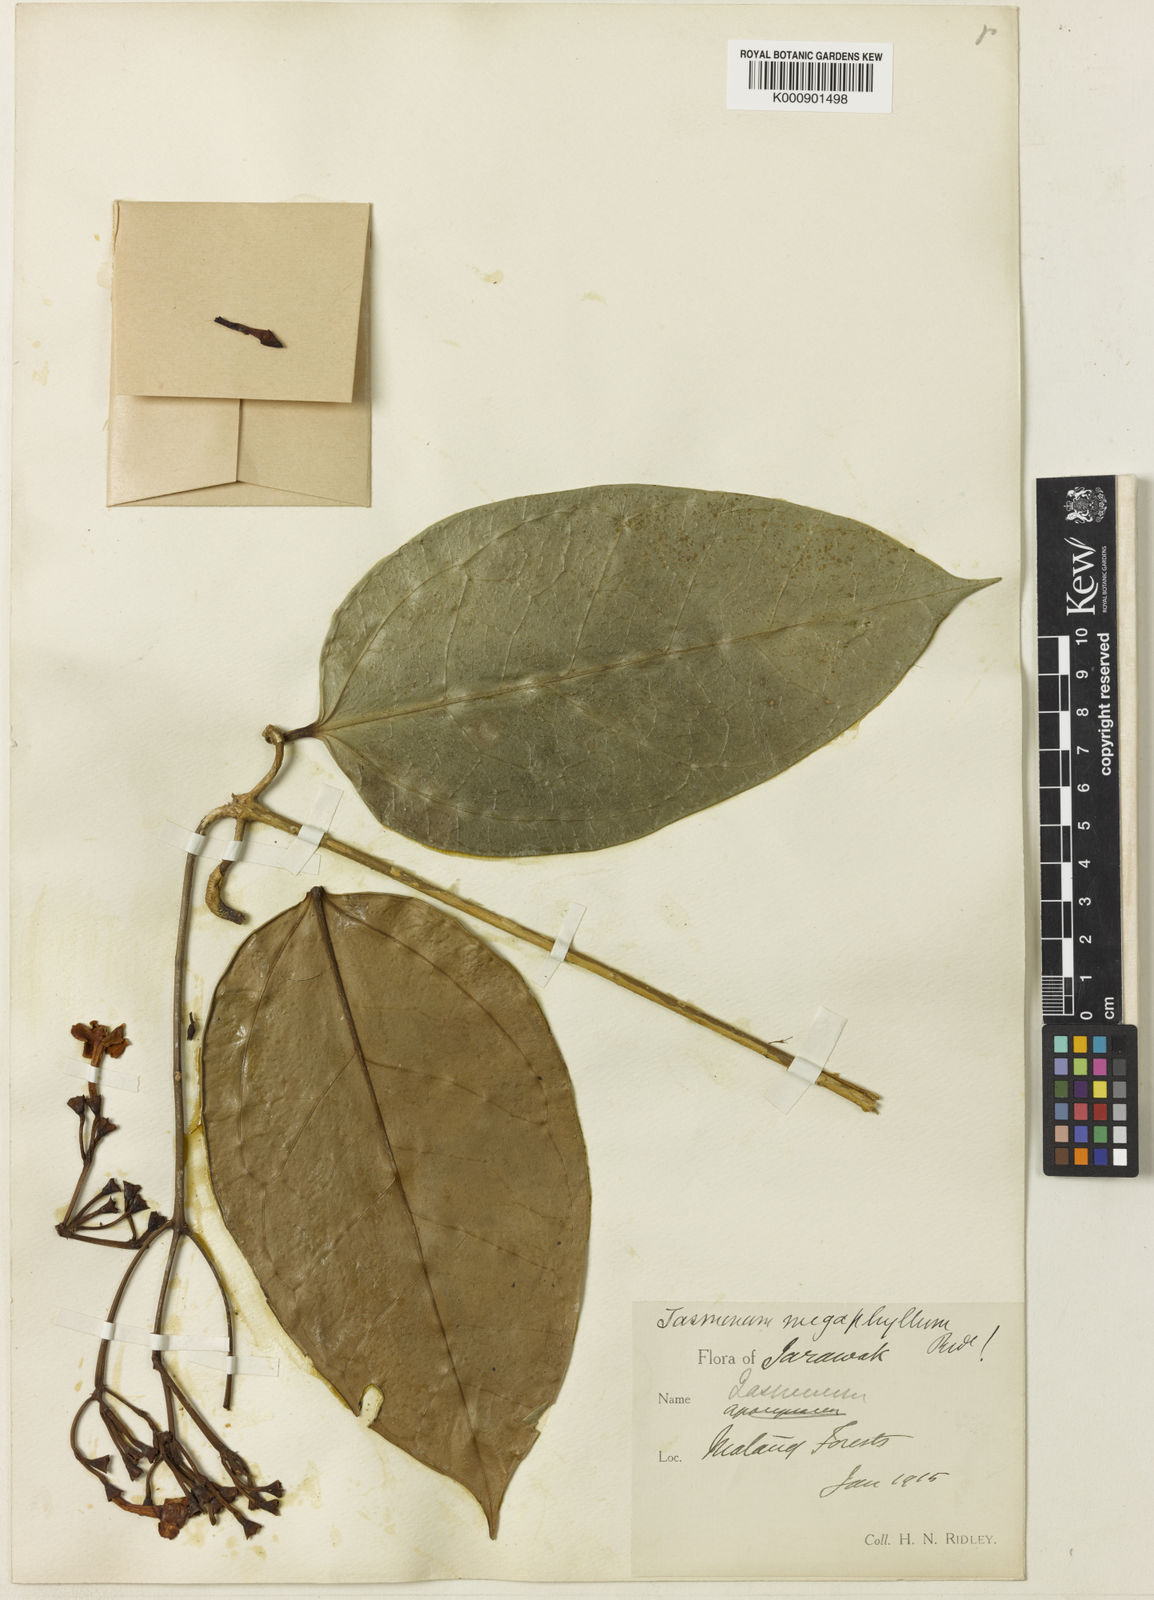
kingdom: Plantae
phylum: Tracheophyta
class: Magnoliopsida
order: Lamiales
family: Oleaceae
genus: Jasminum
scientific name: Jasminum
